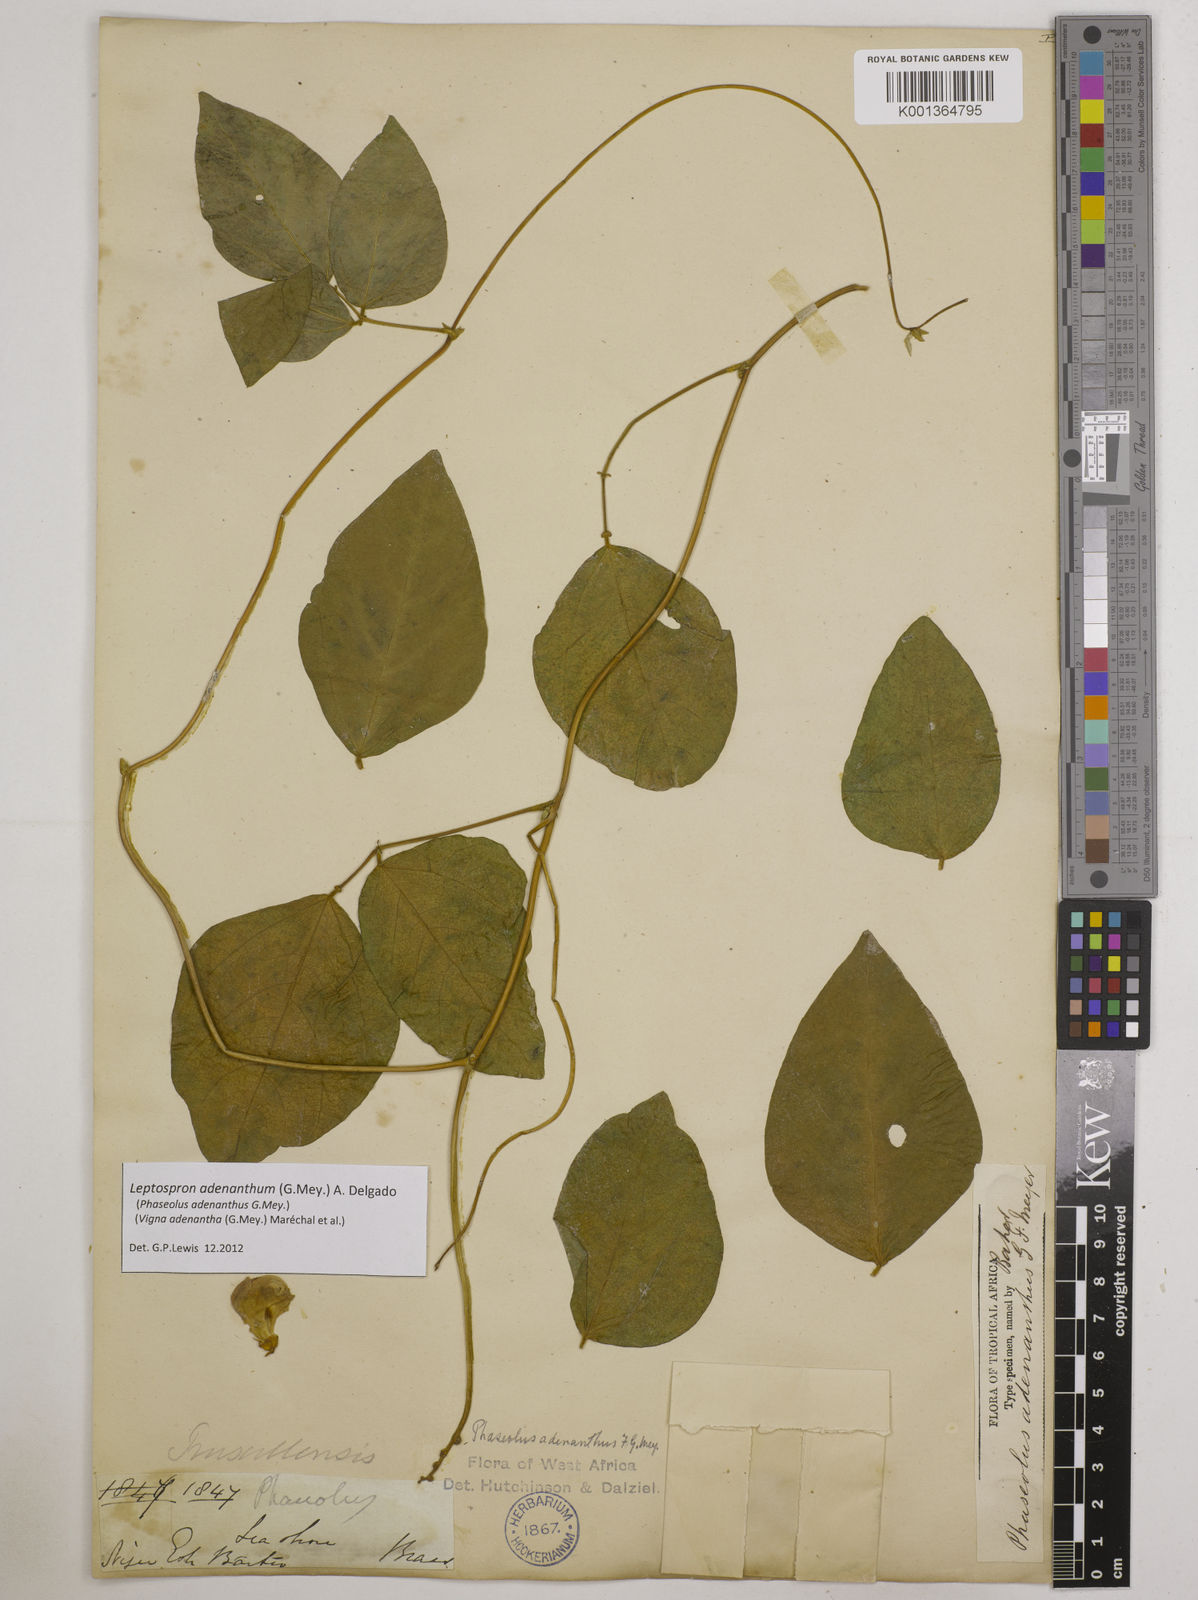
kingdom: Plantae
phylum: Tracheophyta
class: Magnoliopsida
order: Fabales
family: Fabaceae
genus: Leptospron
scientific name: Leptospron adenanthum
